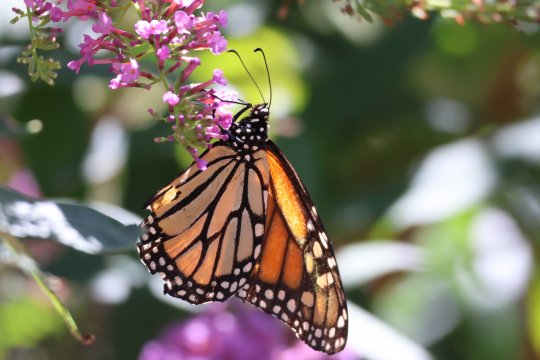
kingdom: Animalia
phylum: Arthropoda
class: Insecta
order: Lepidoptera
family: Nymphalidae
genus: Danaus
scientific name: Danaus plexippus
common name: Monarch
